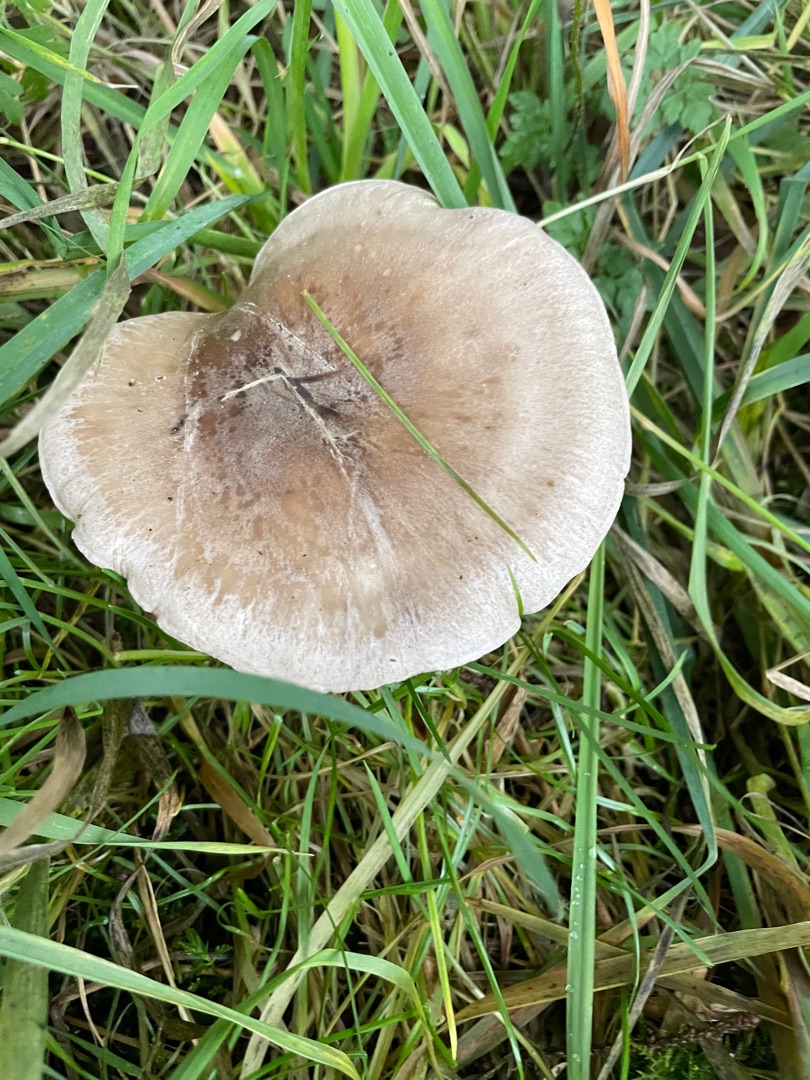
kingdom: Fungi
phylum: Basidiomycota
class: Agaricomycetes
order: Agaricales
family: Tricholomataceae
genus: Clitocybe
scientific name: Clitocybe nebularis
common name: Tåge-tragthat
